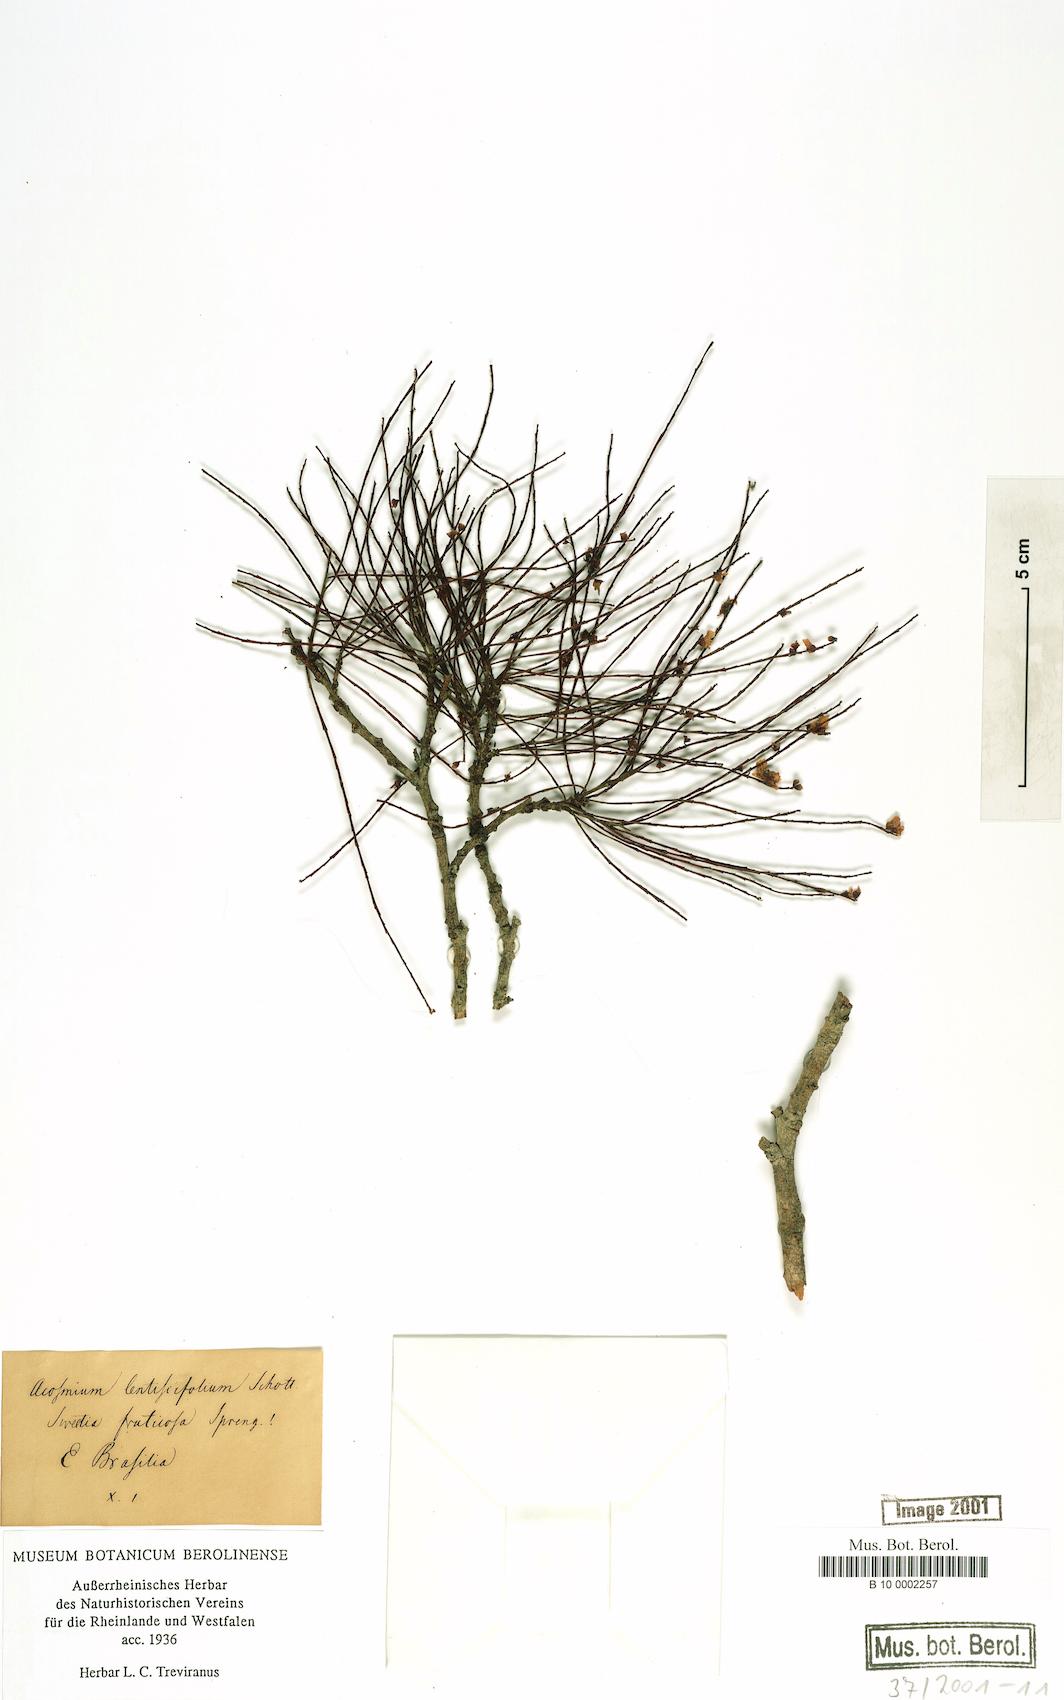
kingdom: Plantae
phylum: Tracheophyta
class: Magnoliopsida
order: Fabales
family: Fabaceae
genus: Sweetia
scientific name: Sweetia fruticosa
